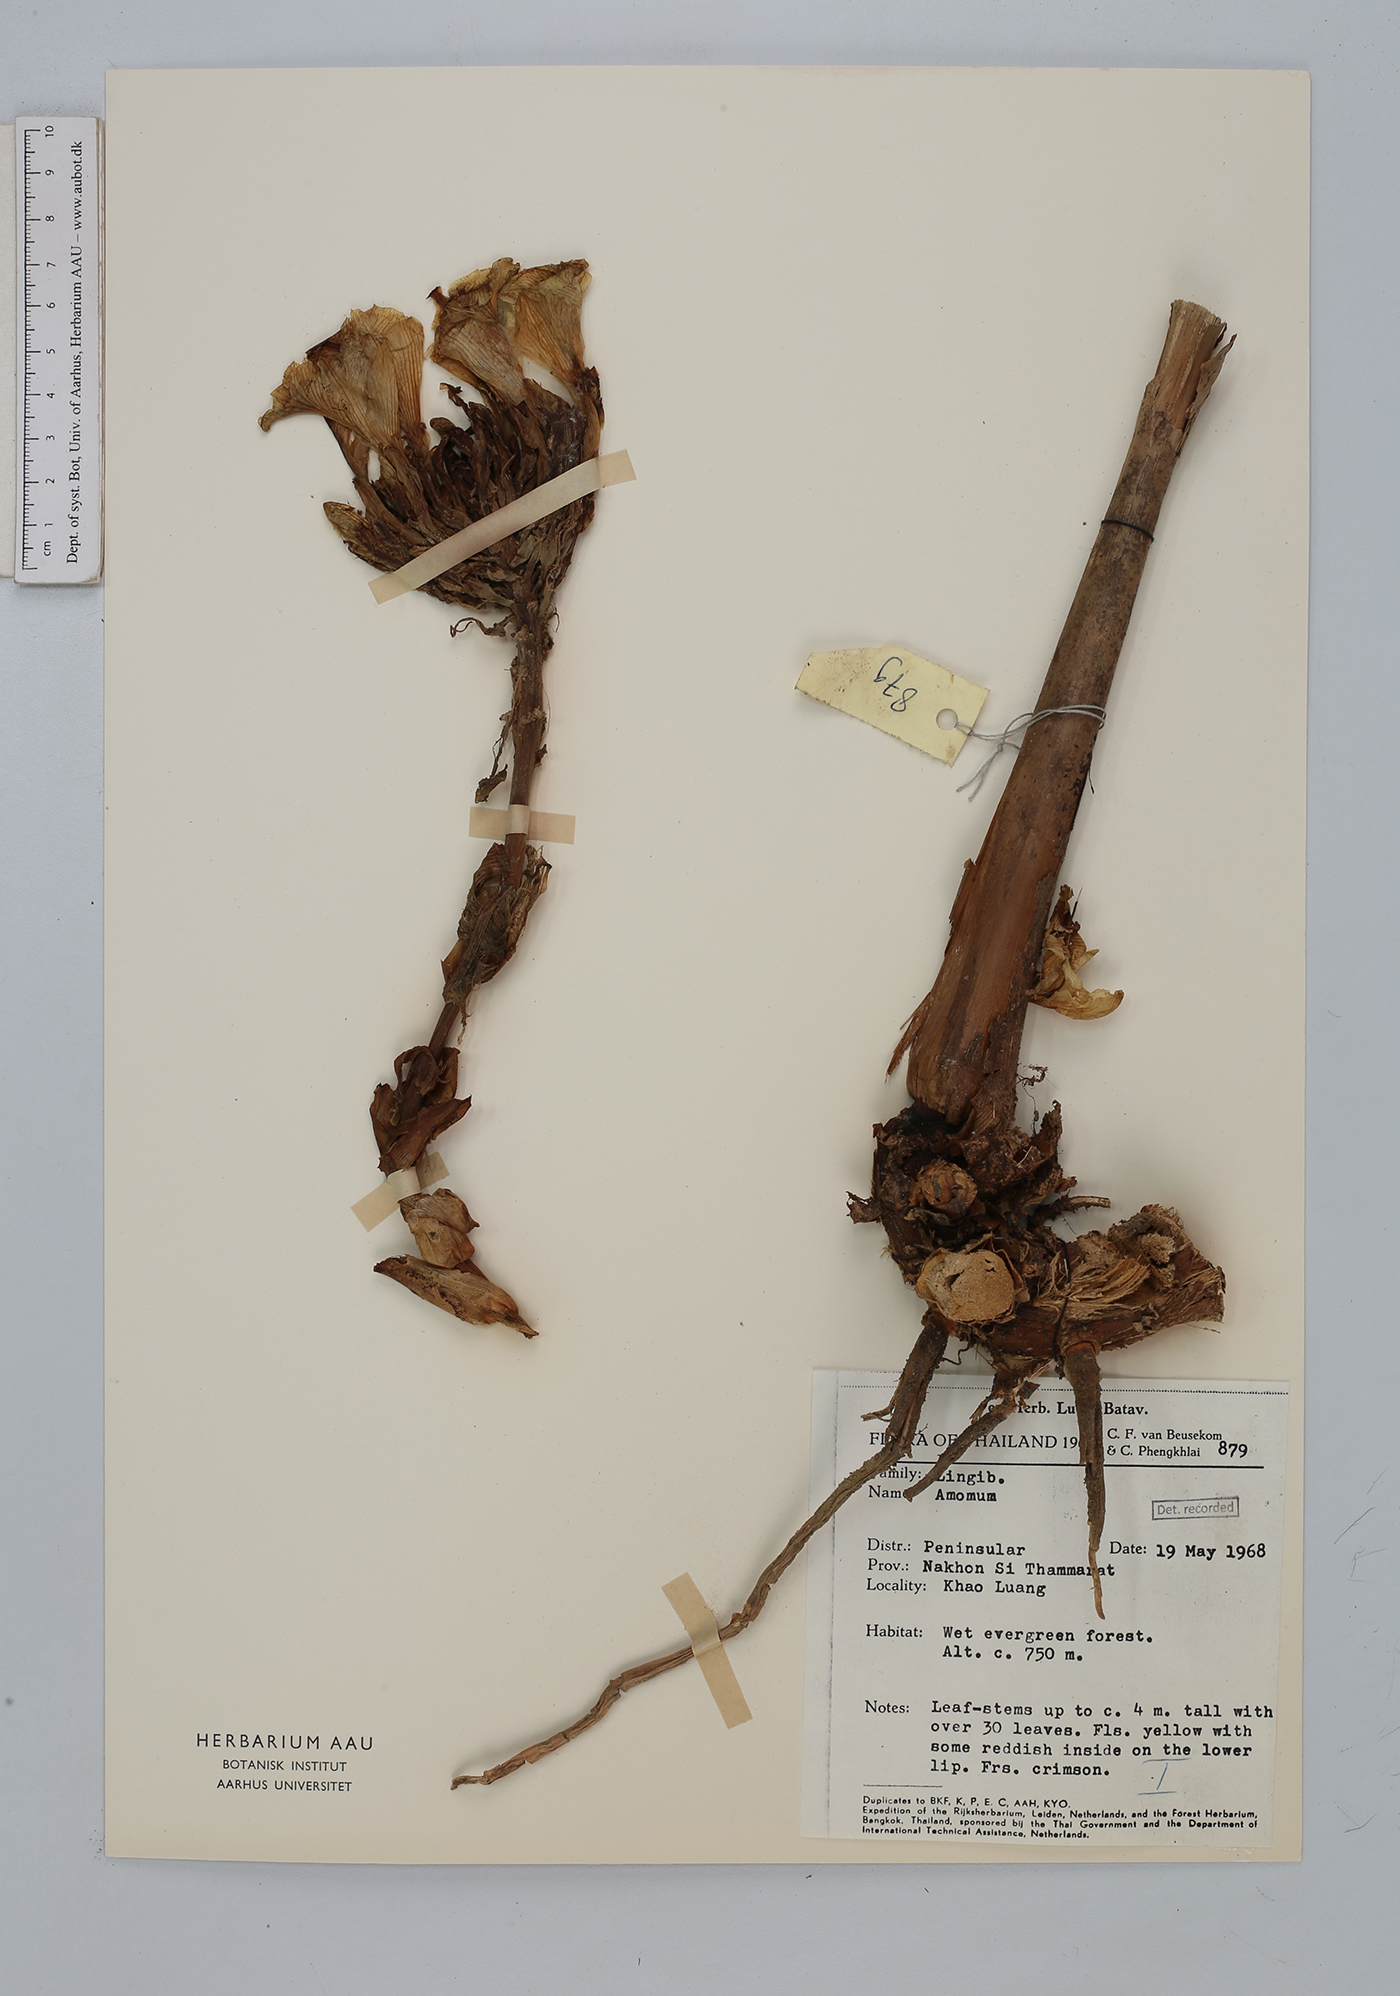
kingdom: Plantae
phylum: Tracheophyta
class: Liliopsida
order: Zingiberales
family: Zingiberaceae
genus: Amomum
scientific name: Amomum
